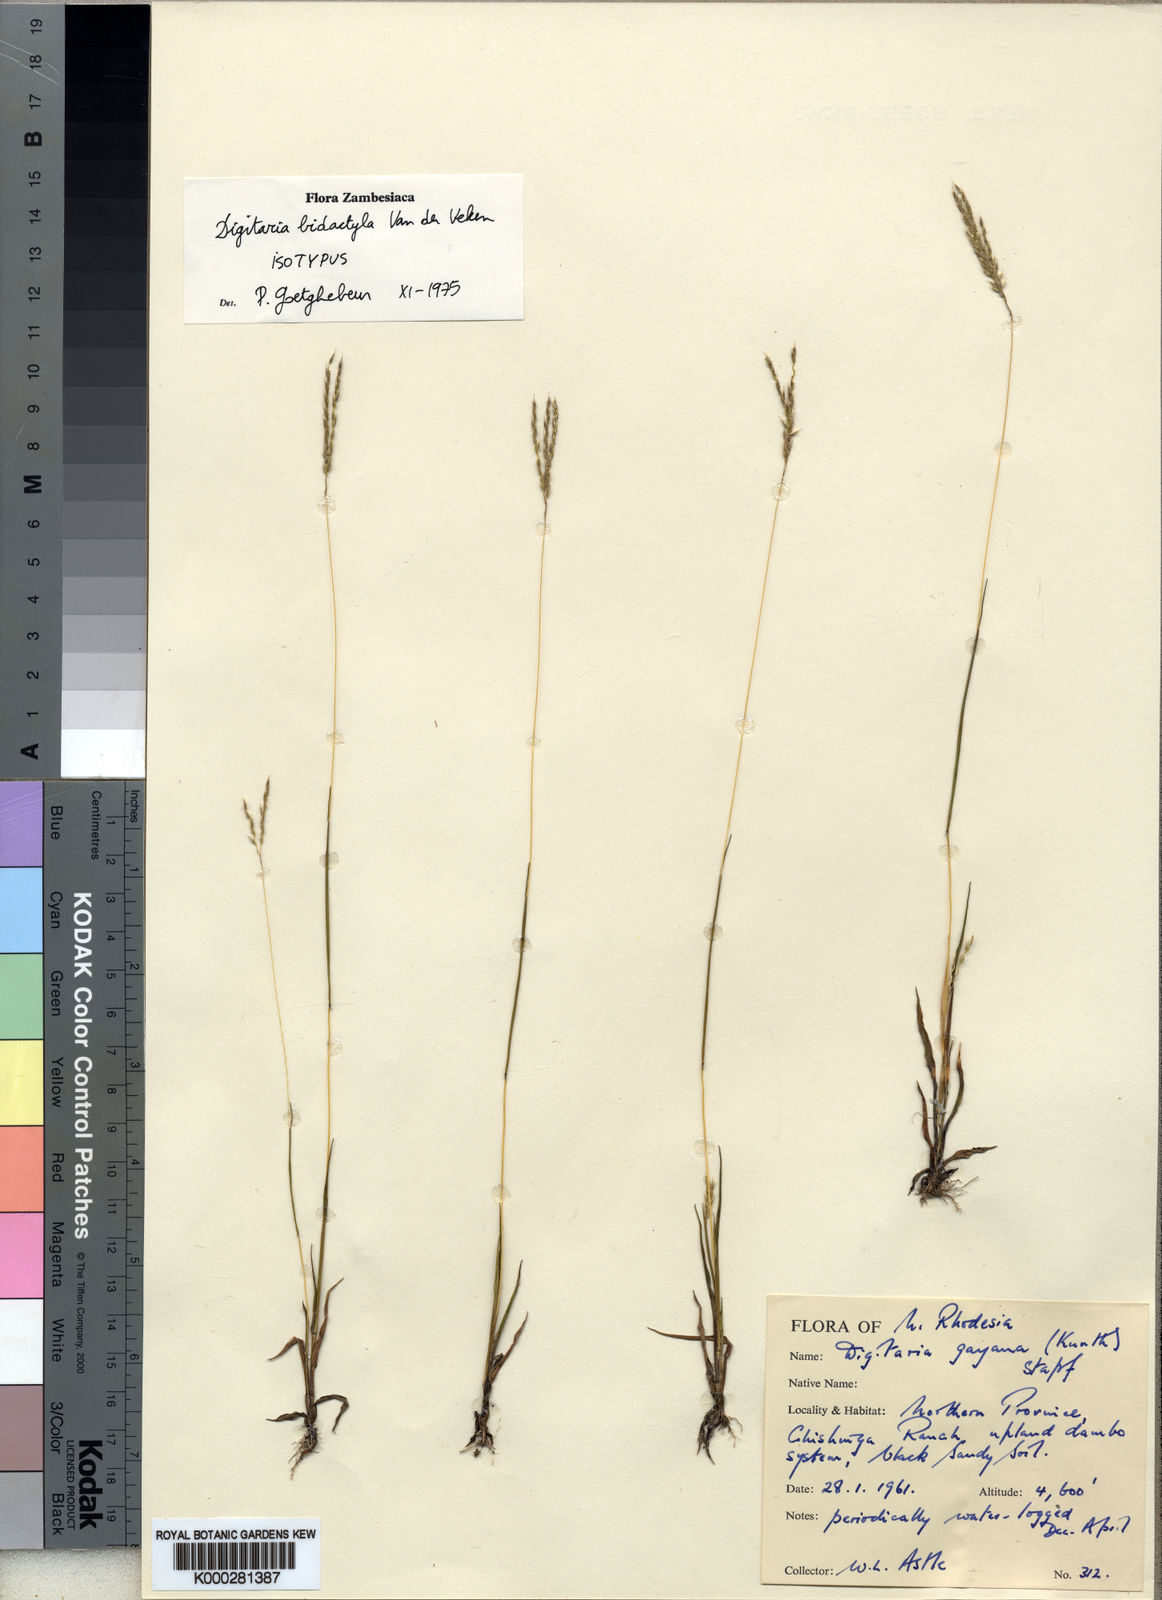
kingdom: Plantae
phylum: Tracheophyta
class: Liliopsida
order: Poales
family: Poaceae
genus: Digitaria
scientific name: Digitaria bidactyla
